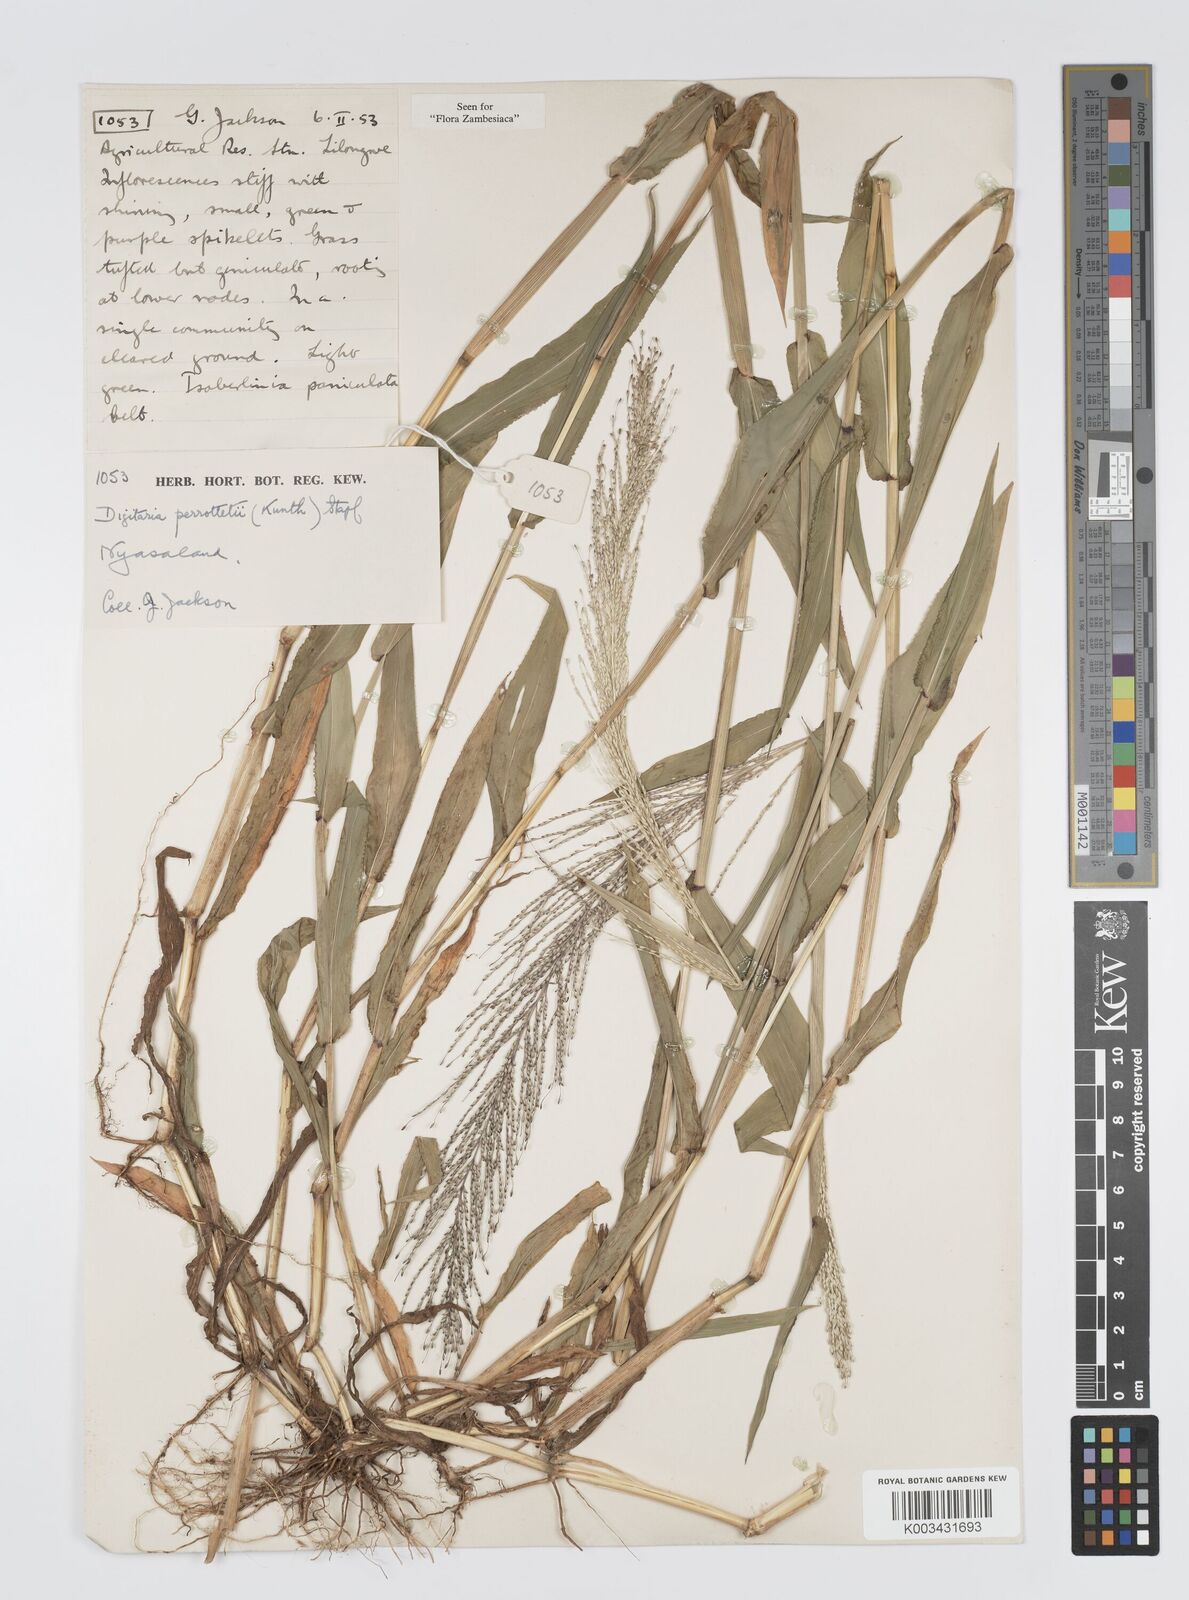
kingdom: Plantae
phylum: Tracheophyta
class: Liliopsida
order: Poales
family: Poaceae
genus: Digitaria
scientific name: Digitaria perrottetii
